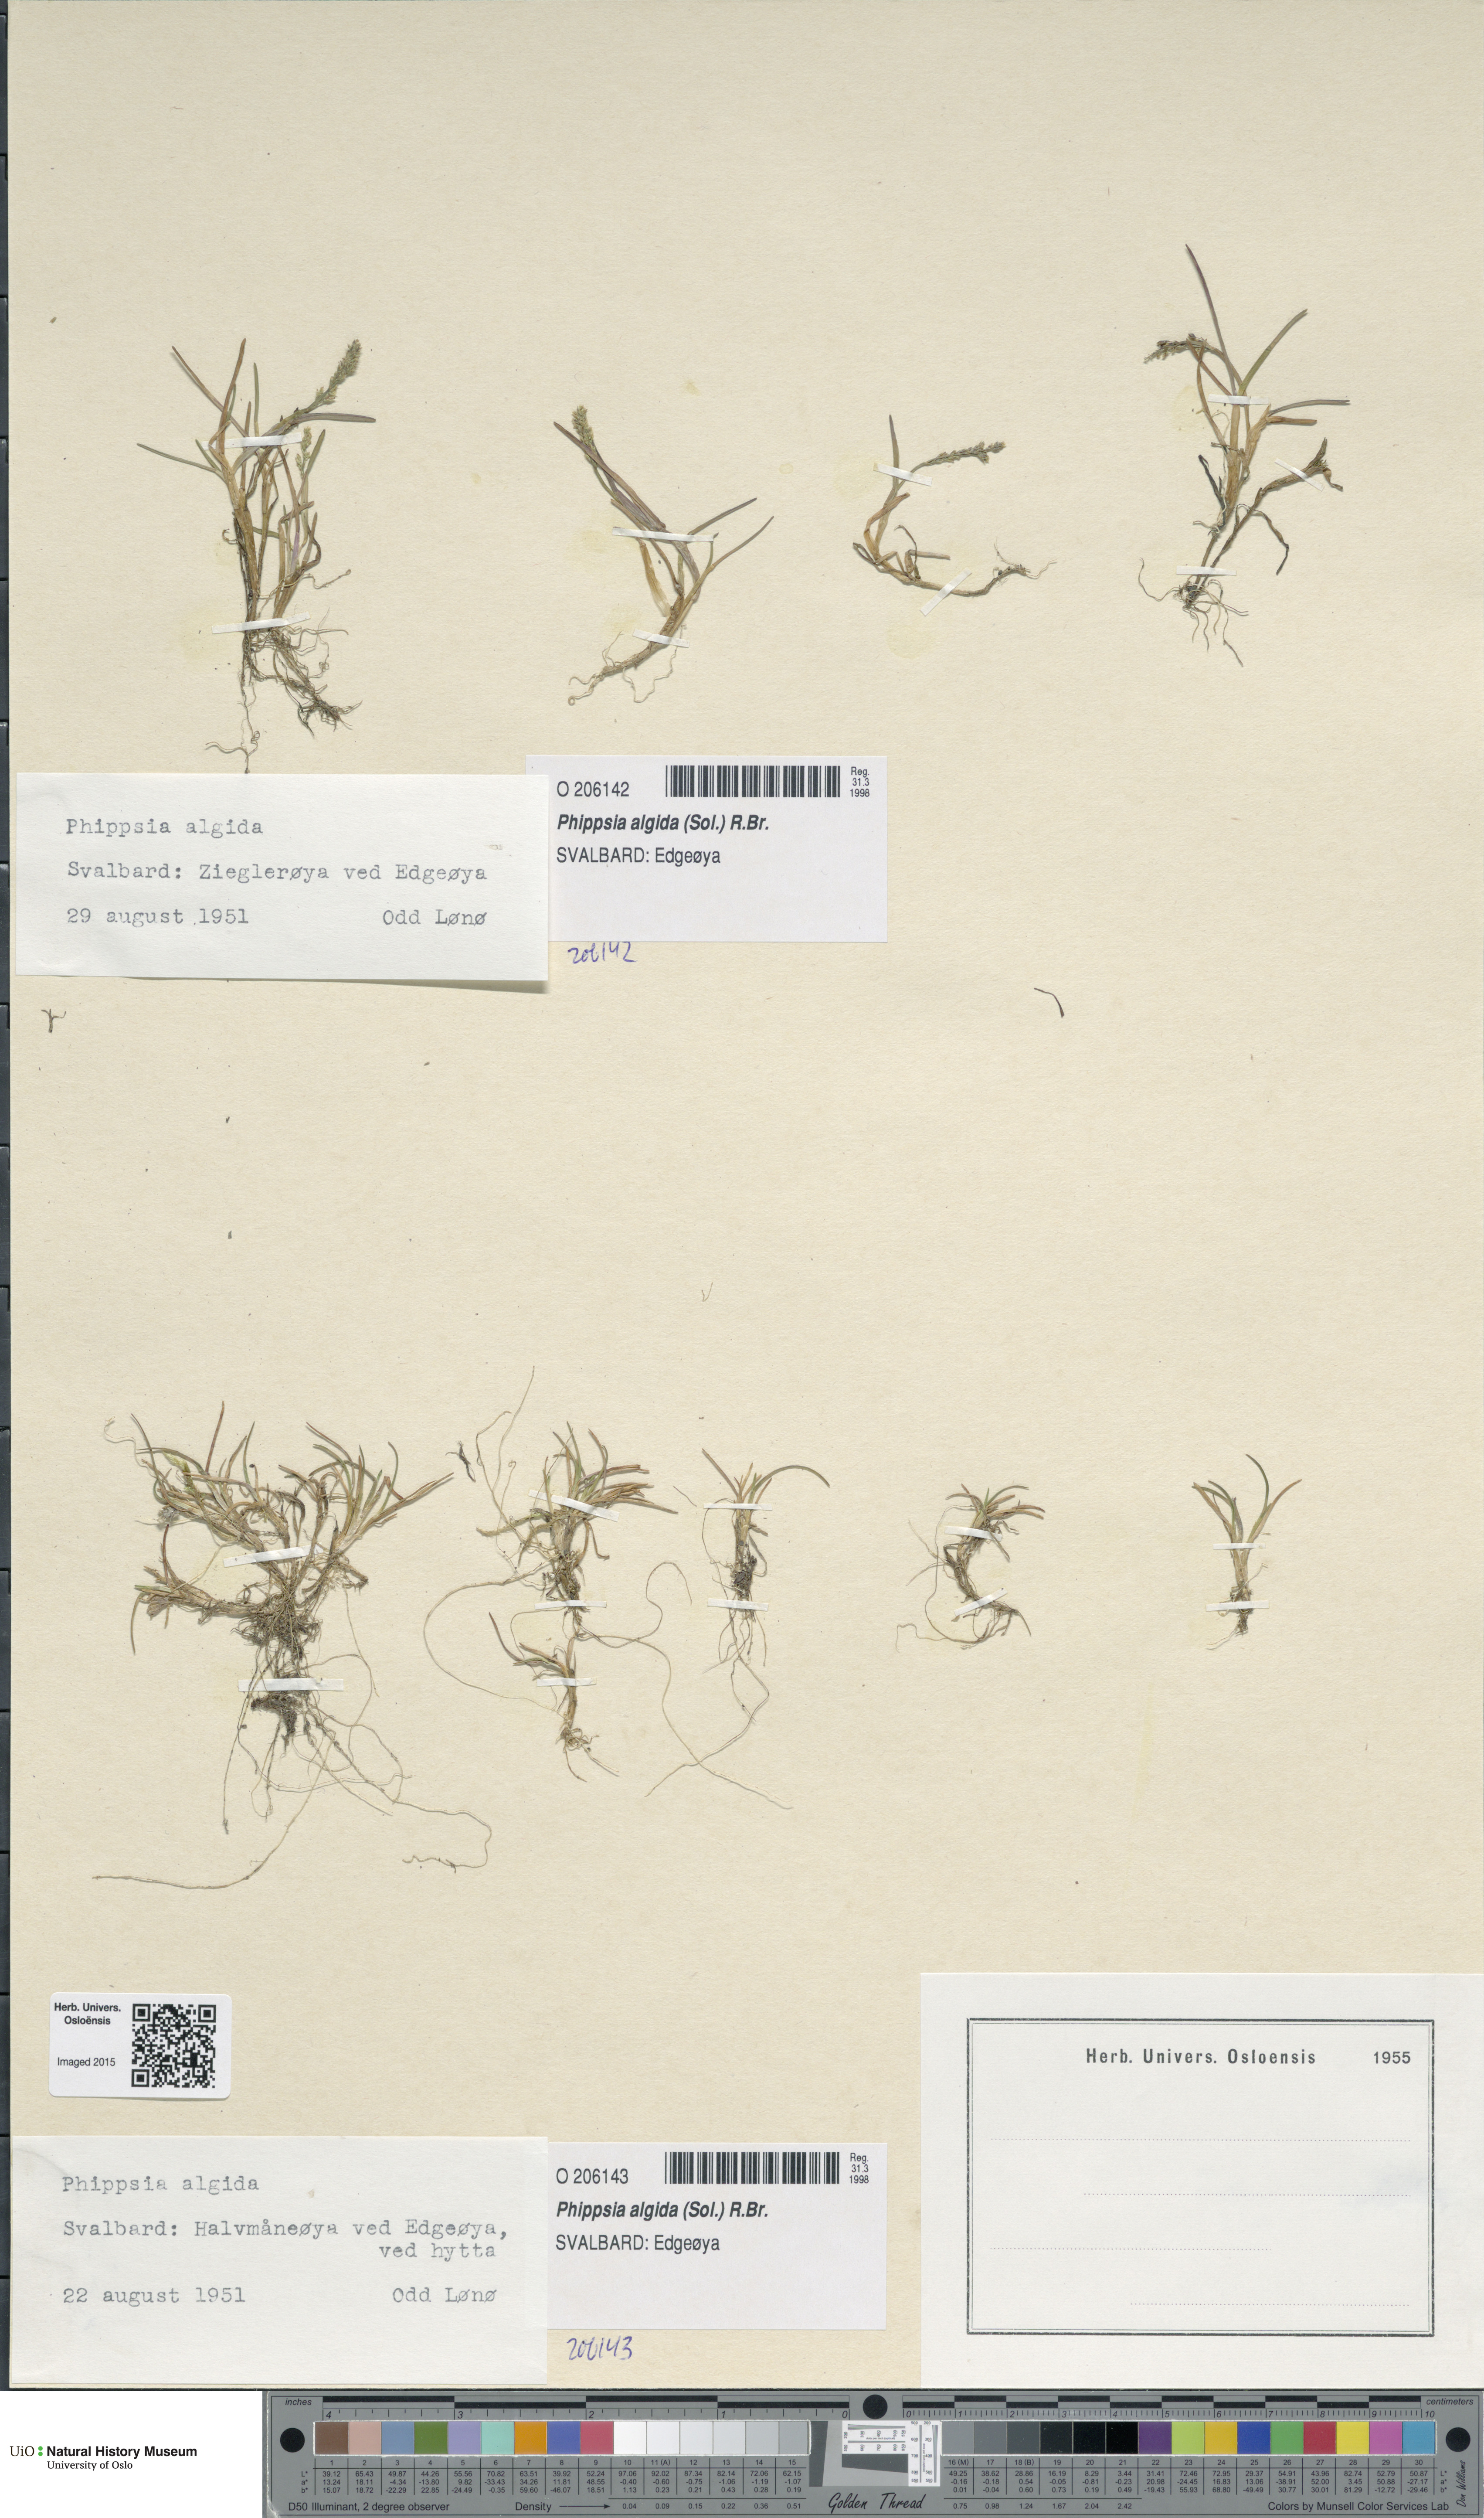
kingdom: Plantae
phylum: Tracheophyta
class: Liliopsida
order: Poales
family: Poaceae
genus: Phippsia
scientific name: Phippsia algida
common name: Ice grass
